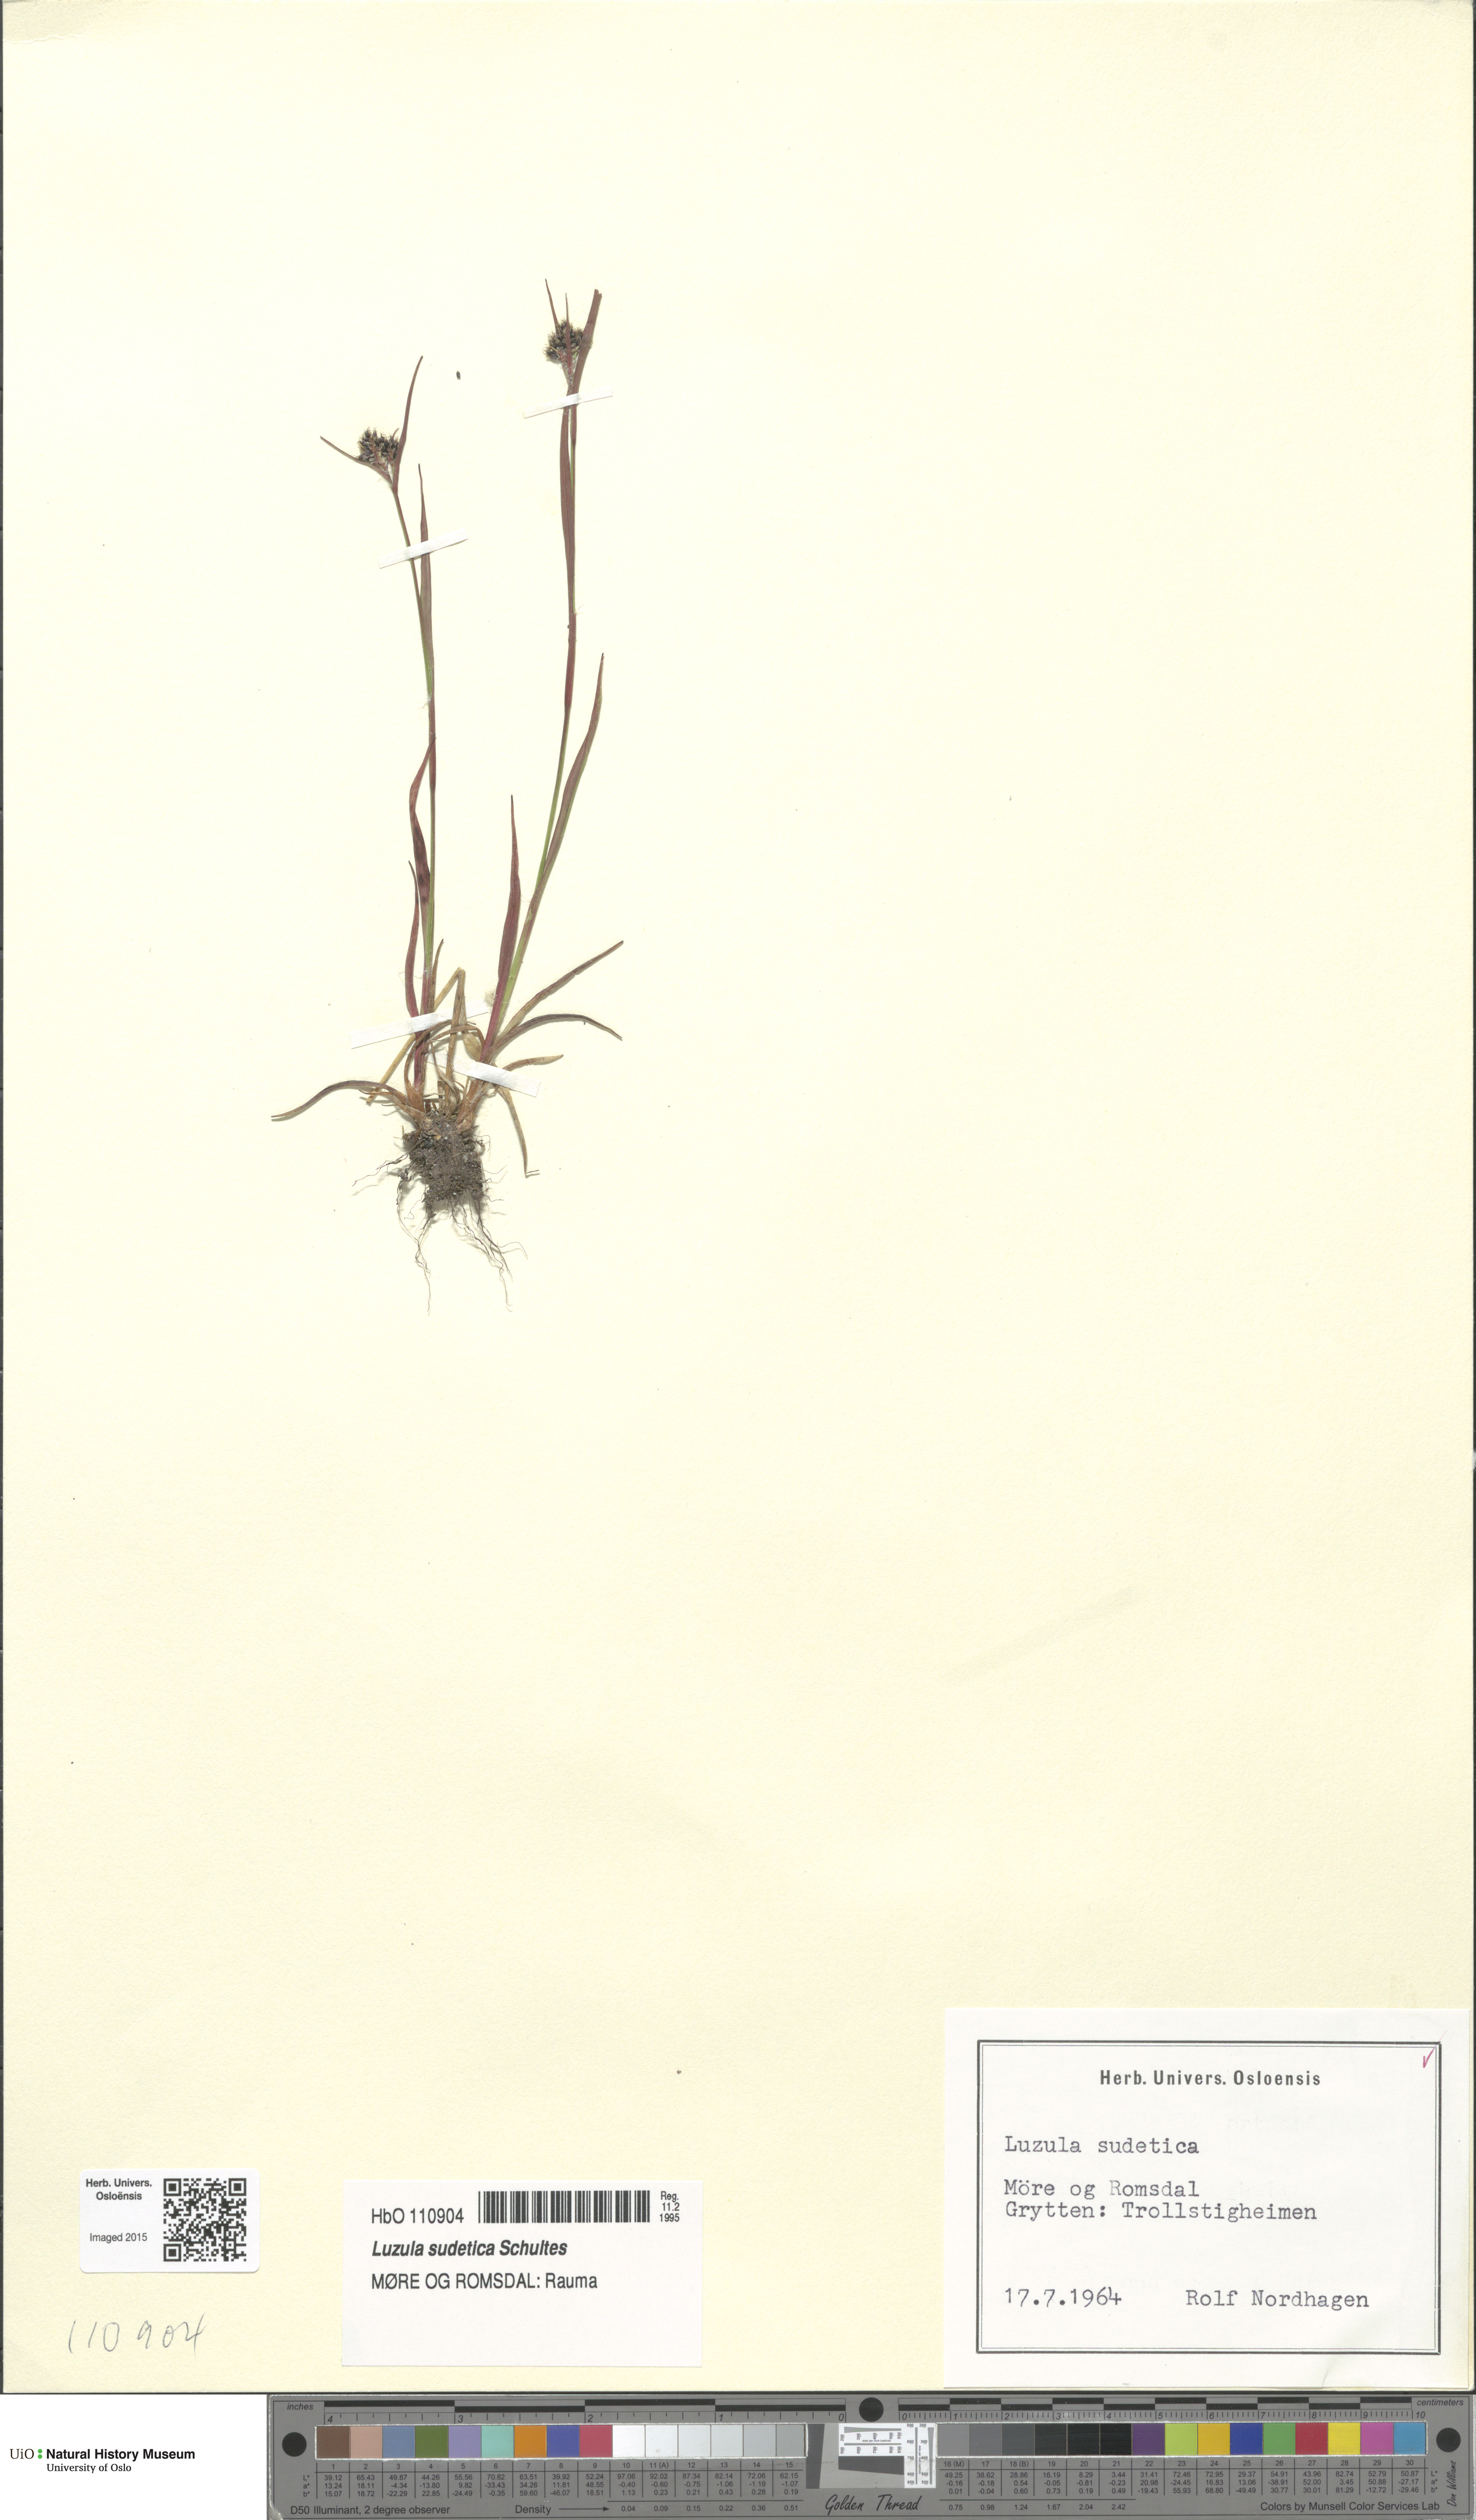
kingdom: Plantae
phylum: Tracheophyta
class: Liliopsida
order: Poales
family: Juncaceae
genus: Luzula
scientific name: Luzula sudetica
